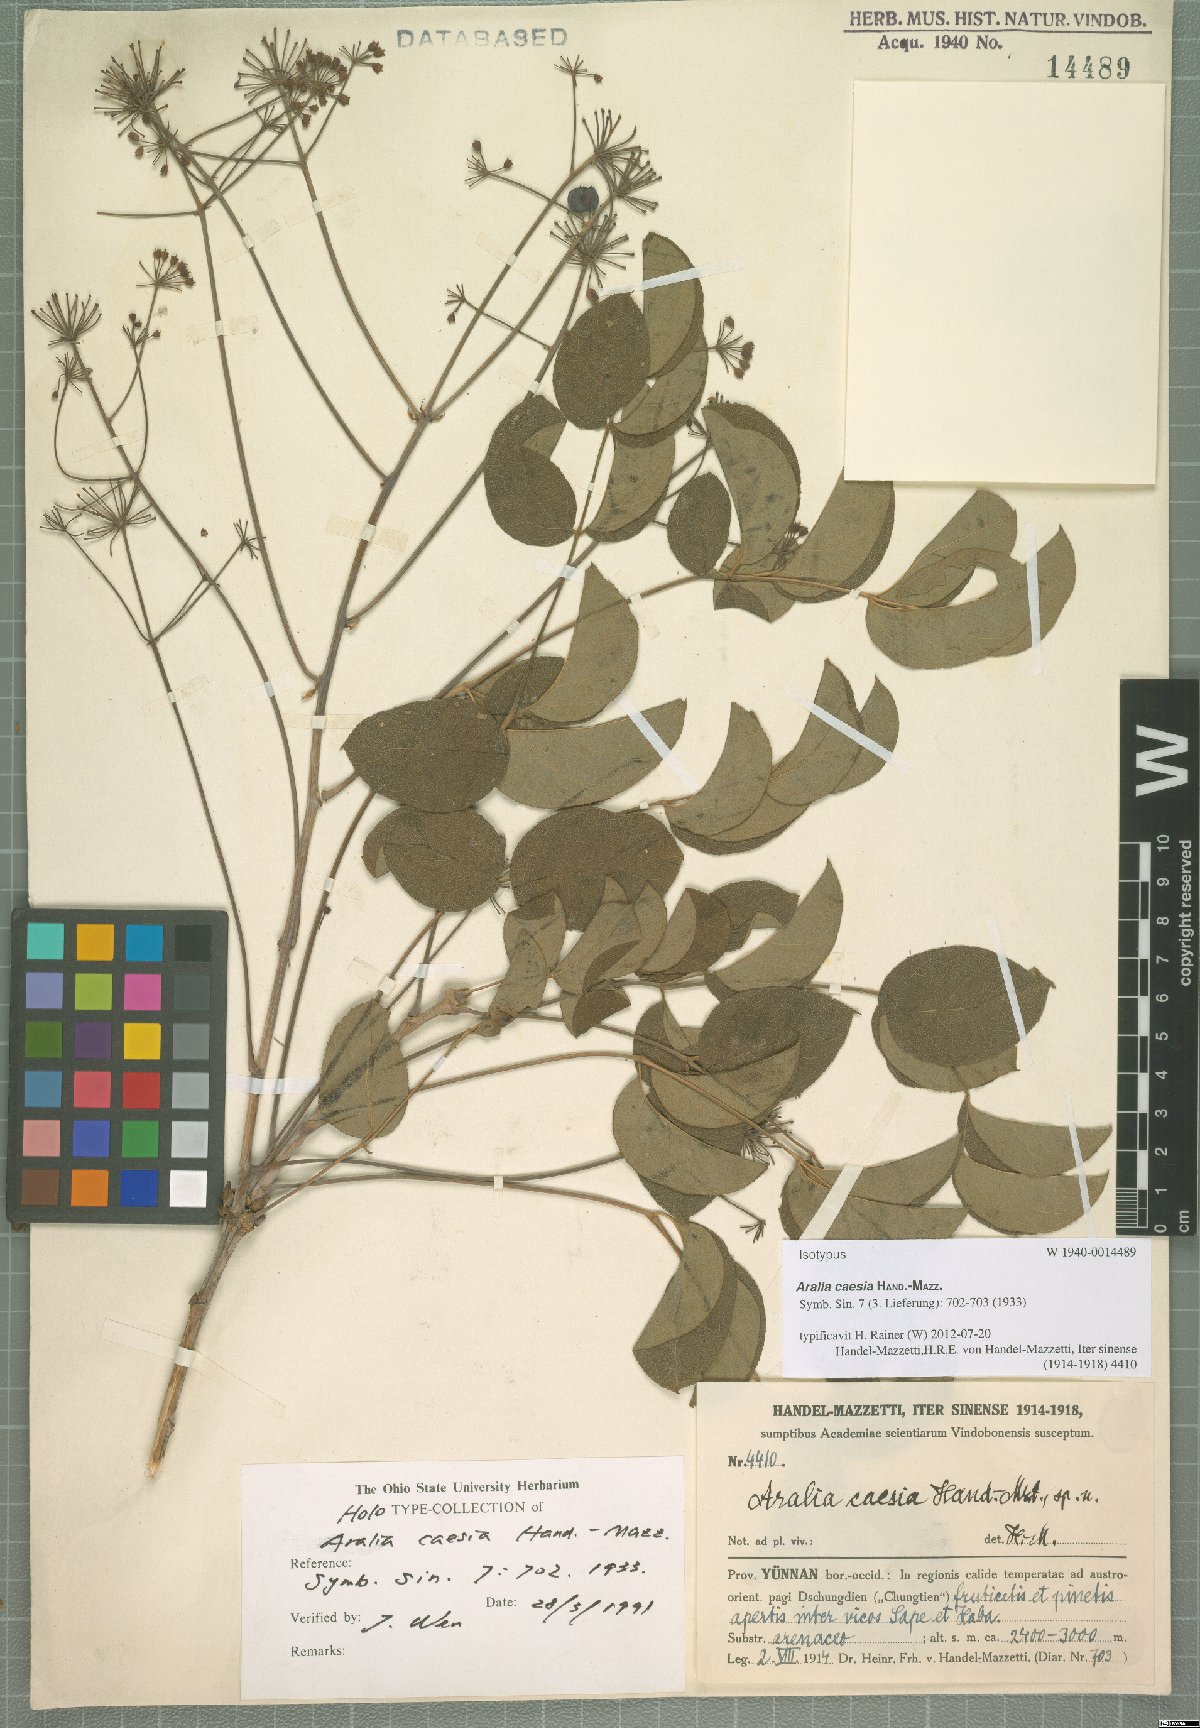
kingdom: Plantae
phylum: Tracheophyta
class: Magnoliopsida
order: Apiales
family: Araliaceae
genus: Aralia
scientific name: Aralia caesia
